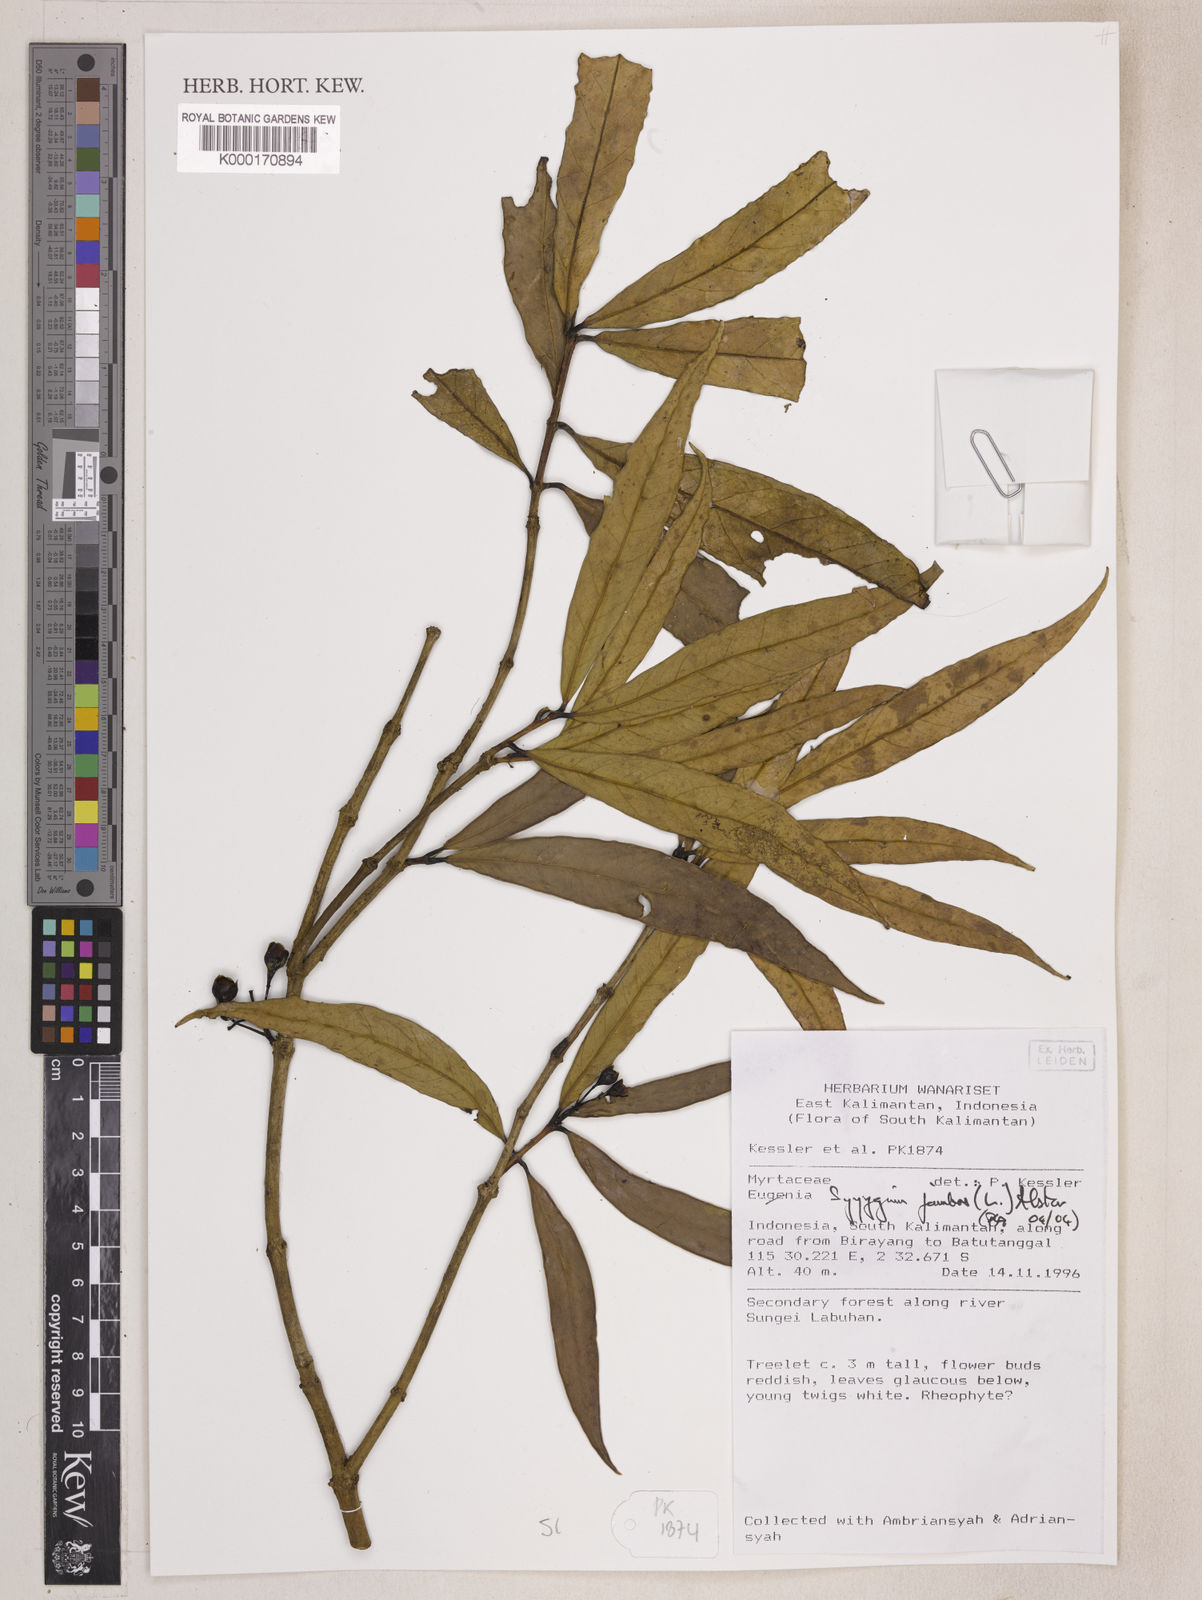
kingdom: Plantae
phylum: Tracheophyta
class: Magnoliopsida
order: Myrtales
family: Myrtaceae
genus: Syzygium
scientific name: Syzygium jambos
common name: Malabar plum
